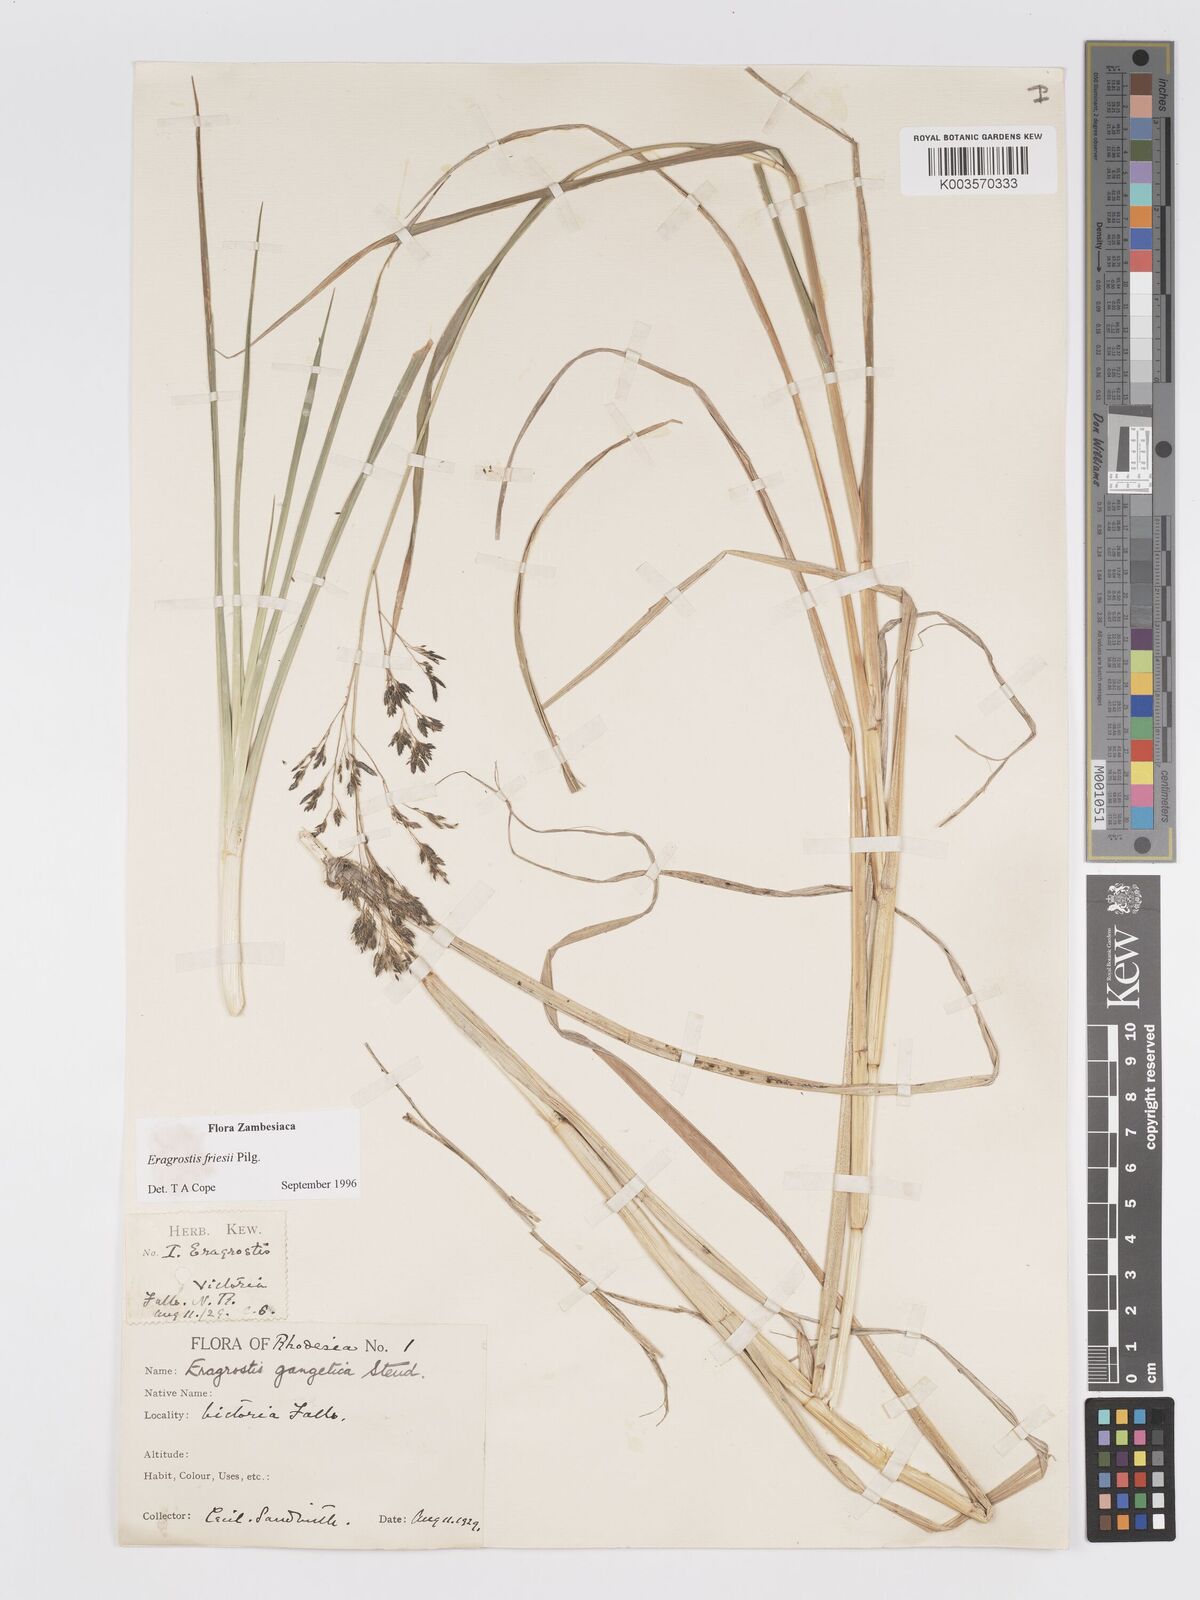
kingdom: Plantae
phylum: Tracheophyta
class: Liliopsida
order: Poales
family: Poaceae
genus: Eragrostis
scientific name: Eragrostis friesii
